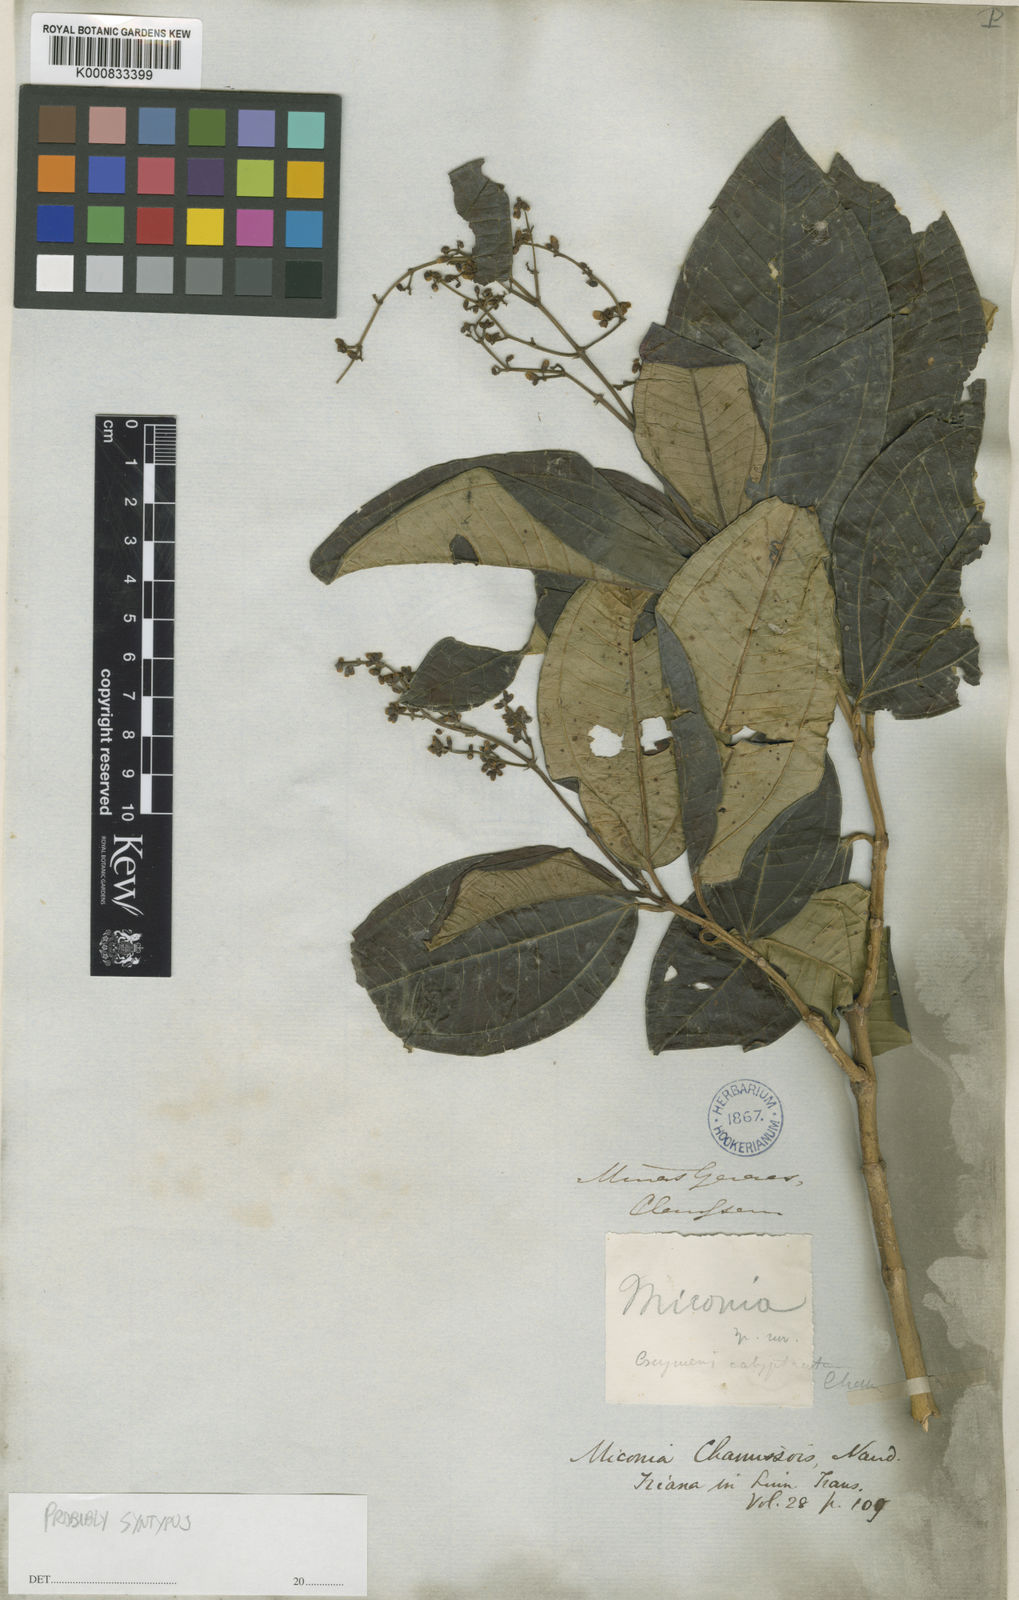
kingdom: Plantae
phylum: Tracheophyta
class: Magnoliopsida
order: Myrtales
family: Melastomataceae
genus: Miconia
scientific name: Miconia chamissois
